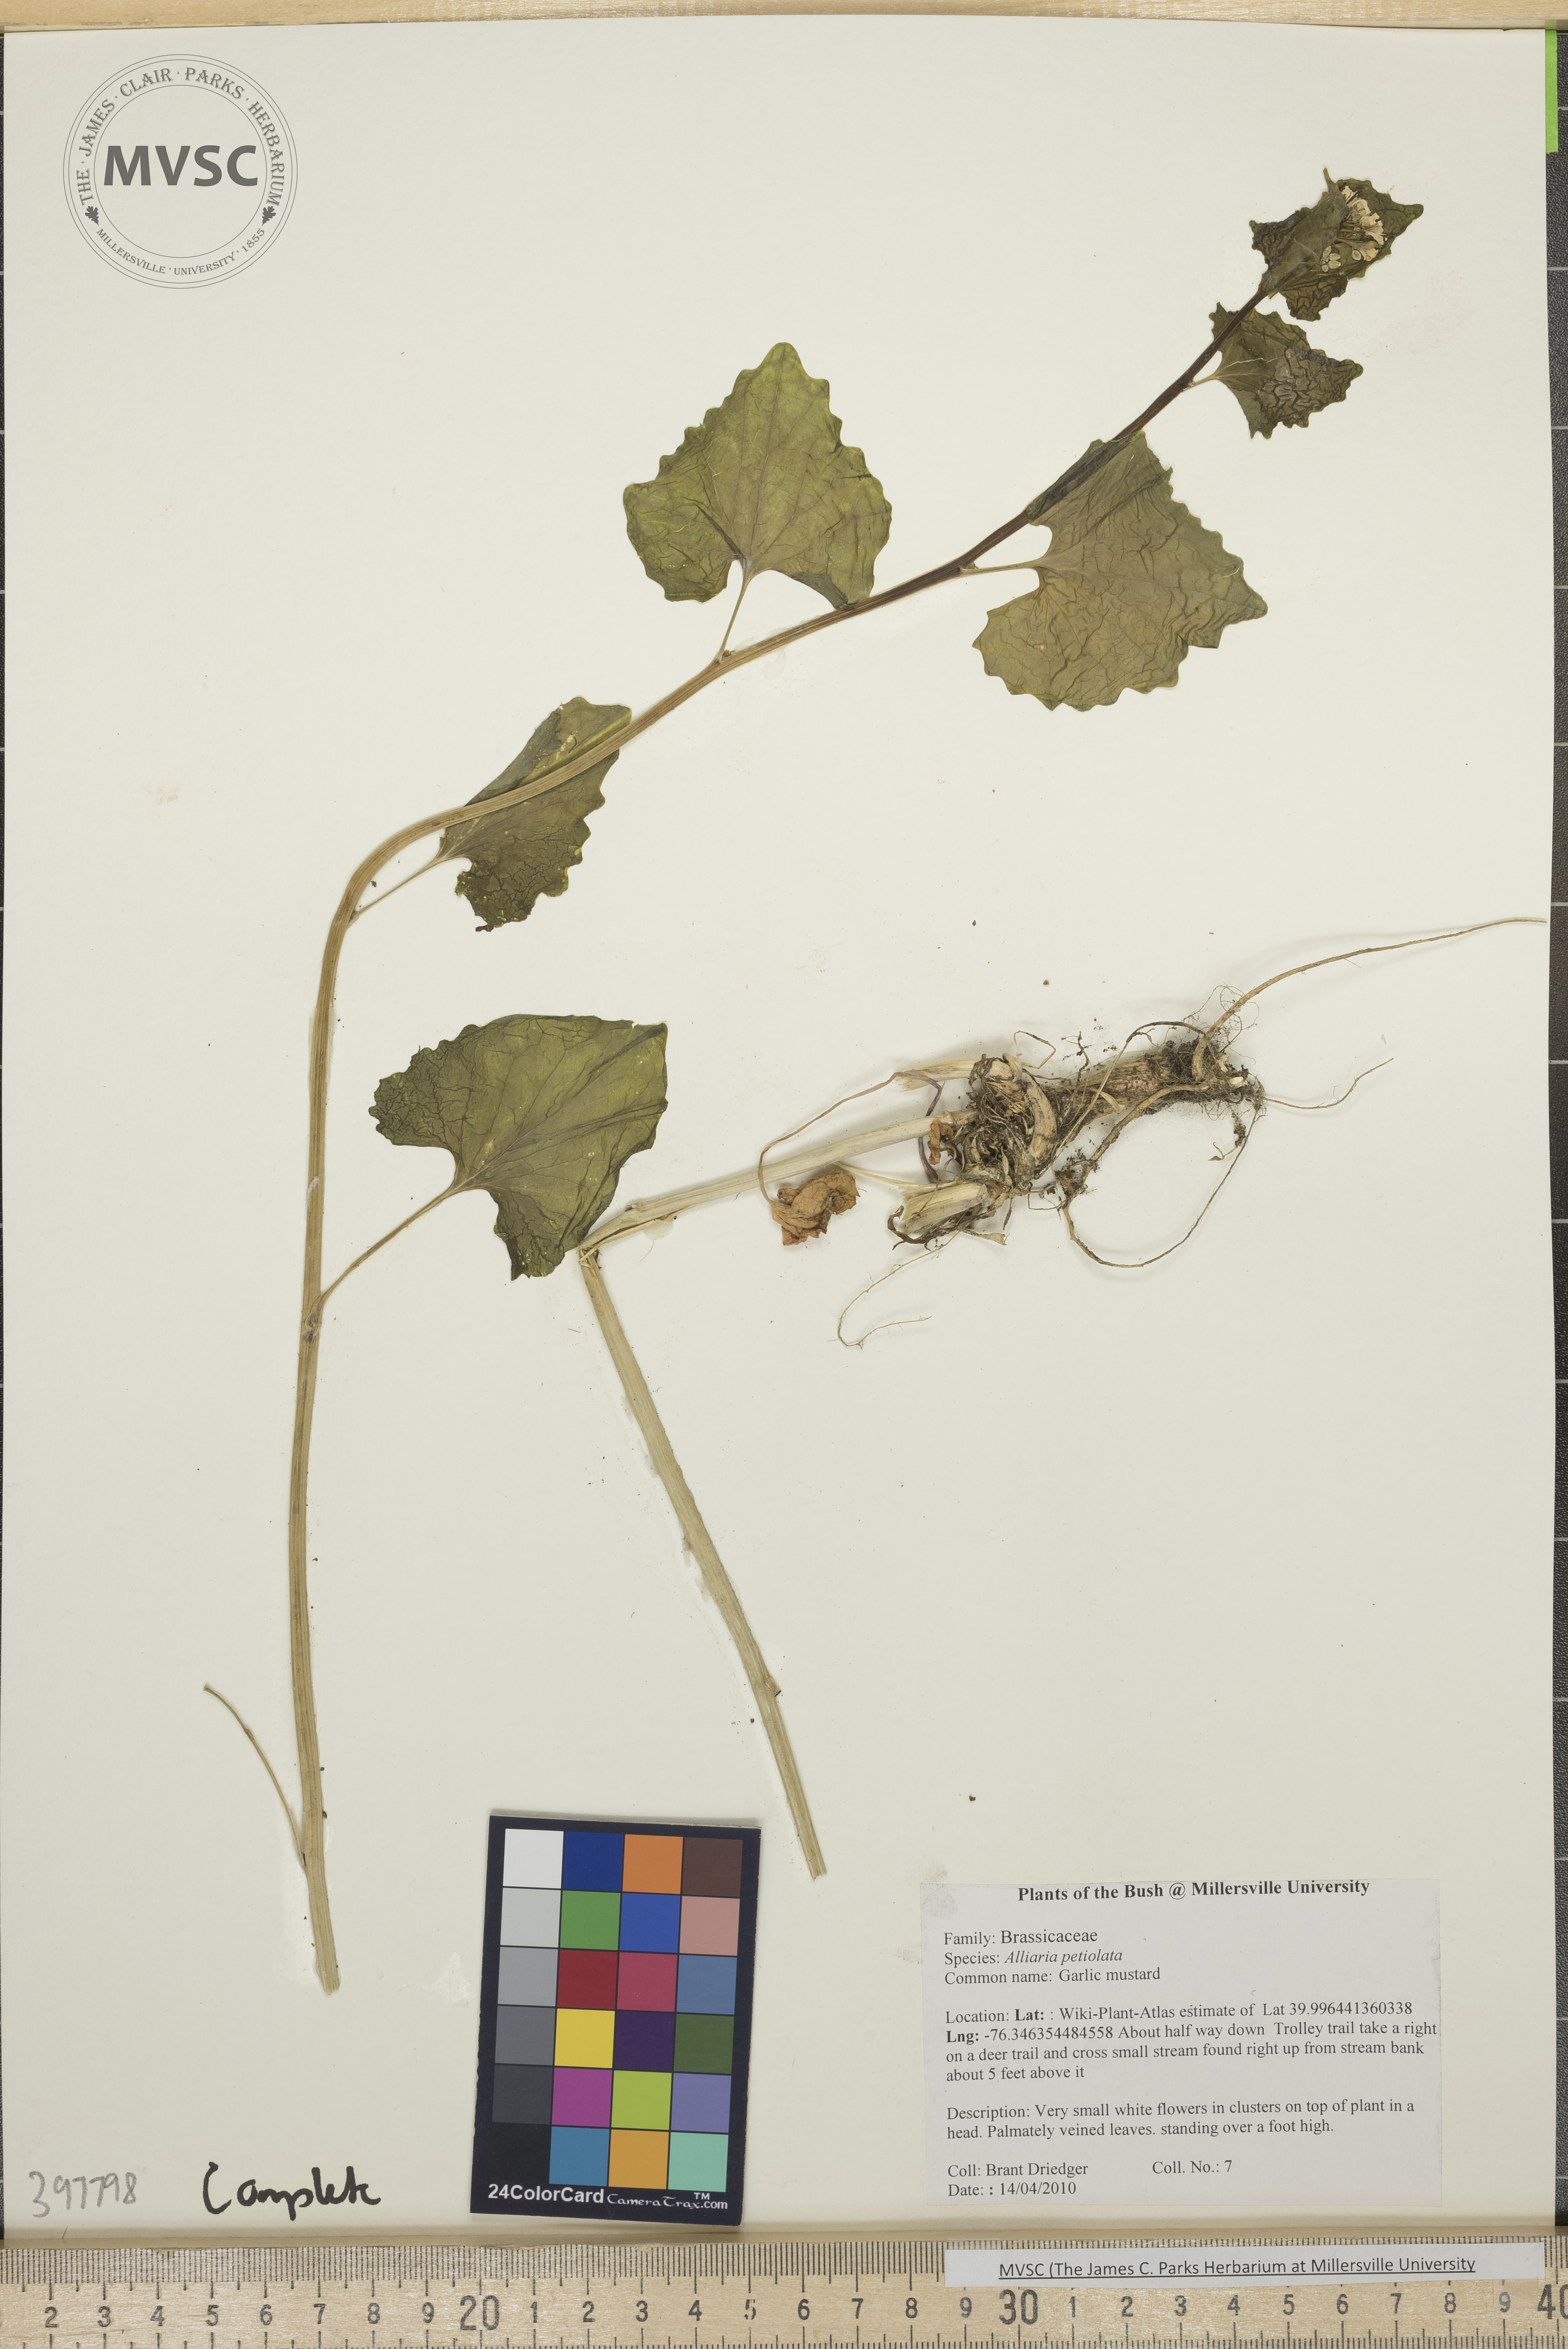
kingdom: Plantae
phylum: Tracheophyta
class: Magnoliopsida
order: Brassicales
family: Brassicaceae
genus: Alliaria
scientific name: Alliaria petiolata
